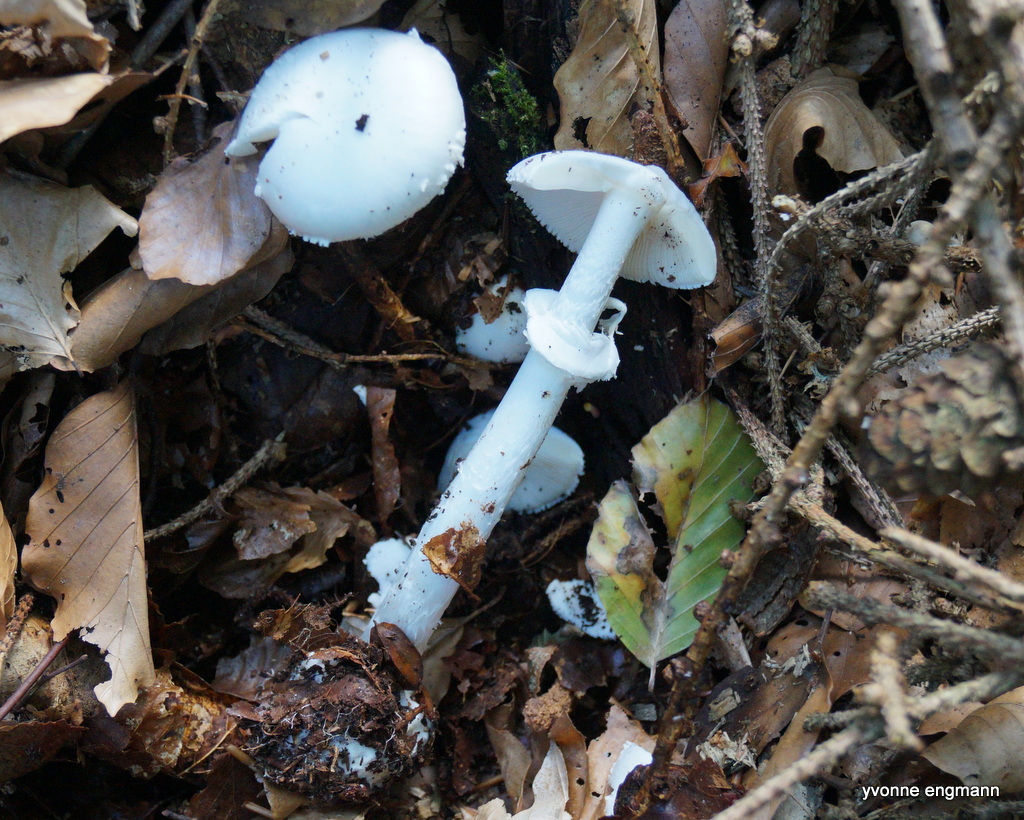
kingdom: Fungi
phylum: Basidiomycota
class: Agaricomycetes
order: Agaricales
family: Amanitaceae
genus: Amanita
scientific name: Amanita phalloides
